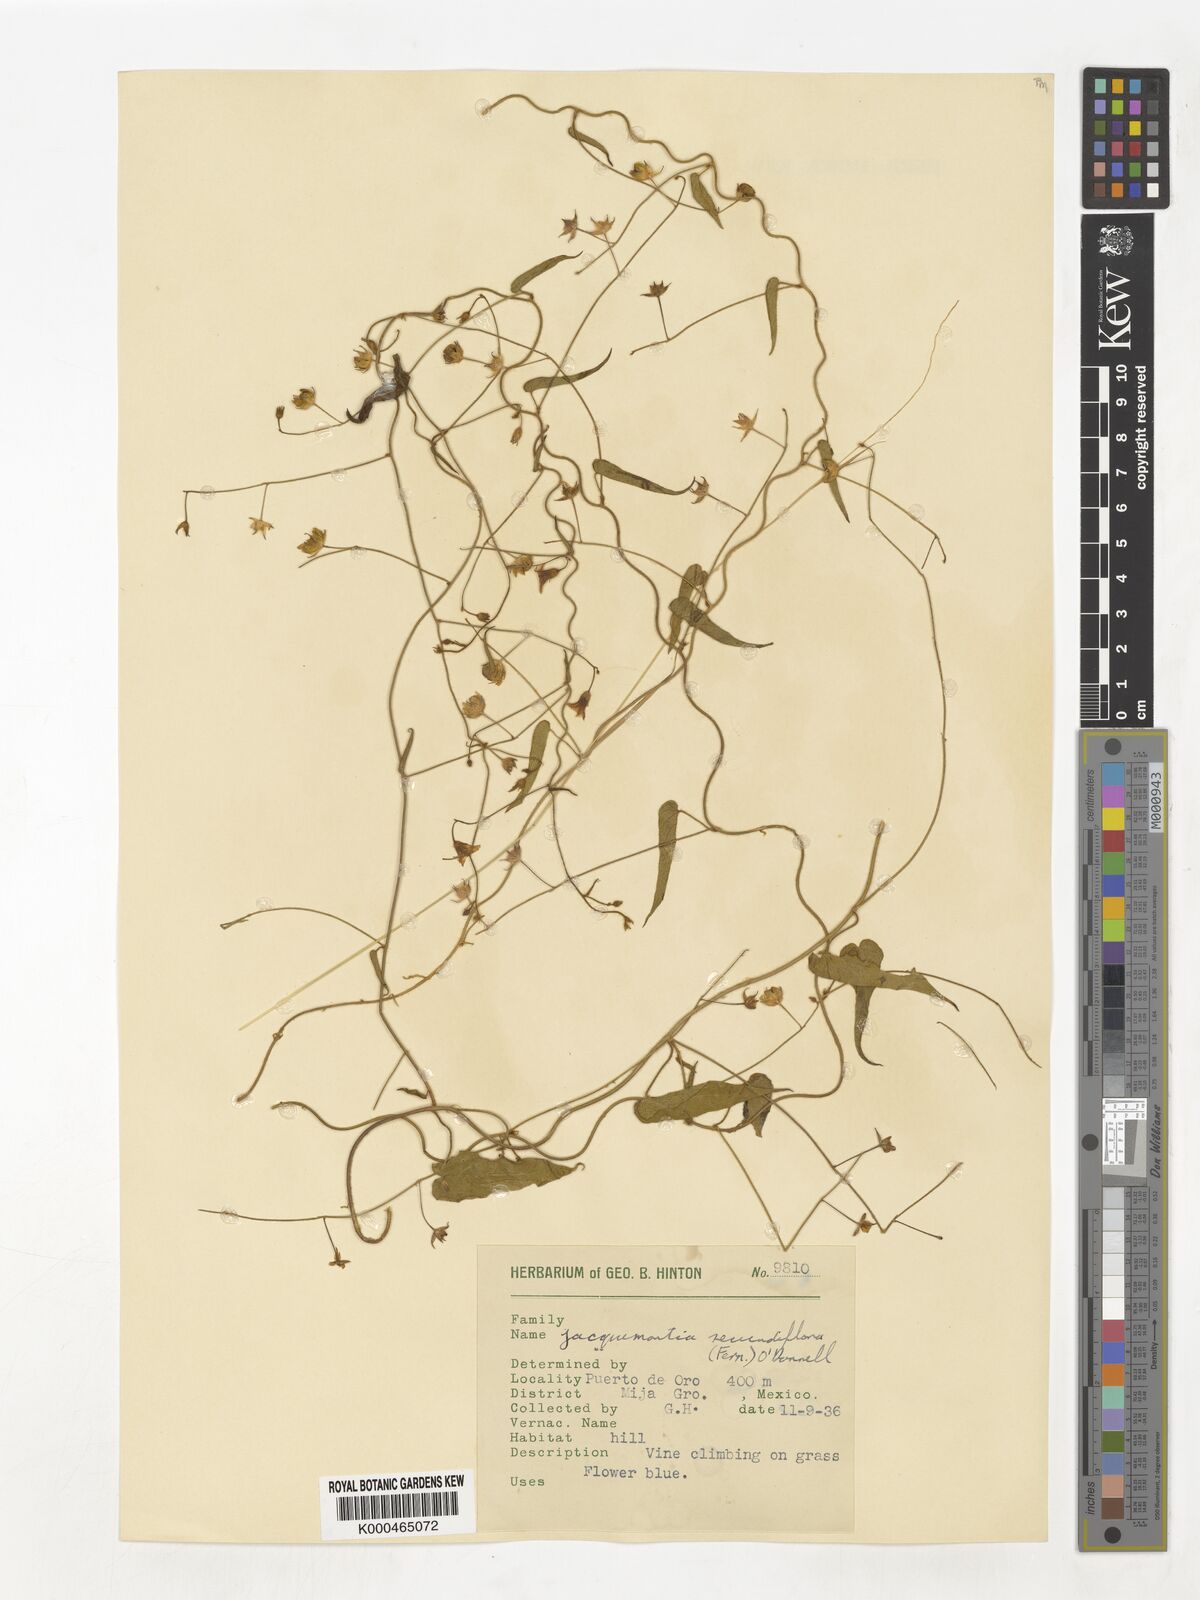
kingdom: Plantae
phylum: Tracheophyta
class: Magnoliopsida
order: Solanales
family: Convolvulaceae
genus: Jacquemontia
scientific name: Jacquemontia agrestis
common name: Midnightblue clustervine
